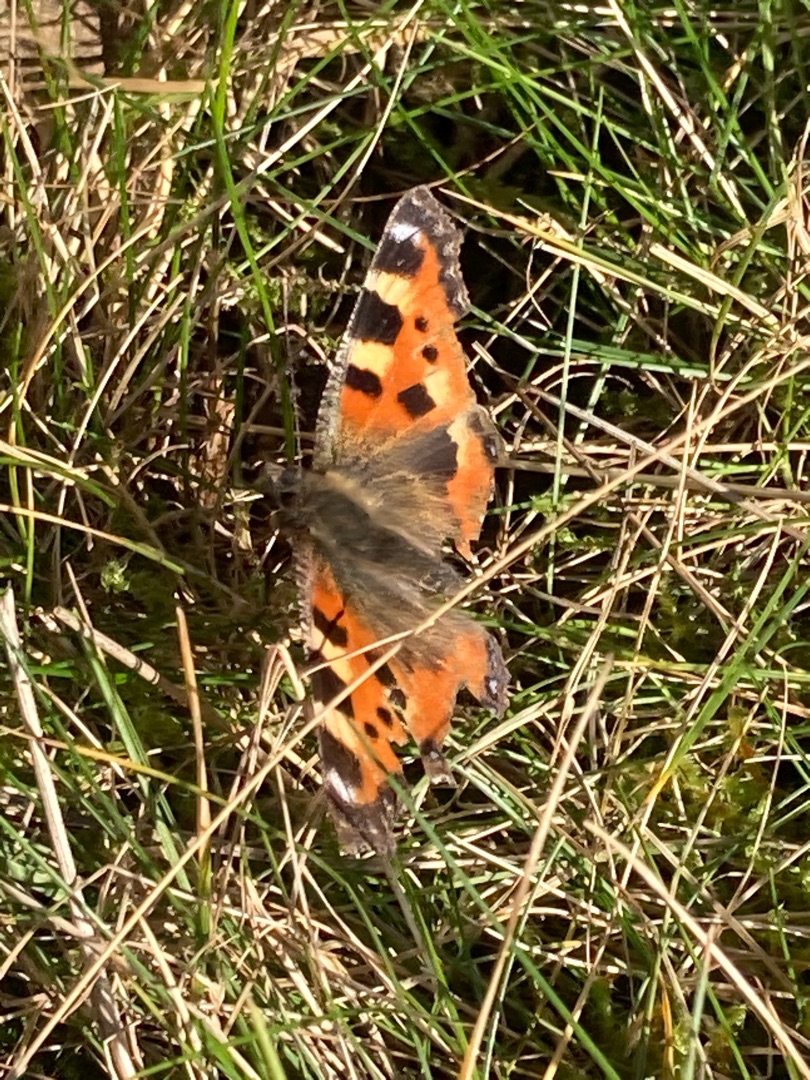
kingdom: Animalia
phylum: Arthropoda
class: Insecta
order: Lepidoptera
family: Nymphalidae
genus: Aglais
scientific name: Aglais urticae
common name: Nældens takvinge
